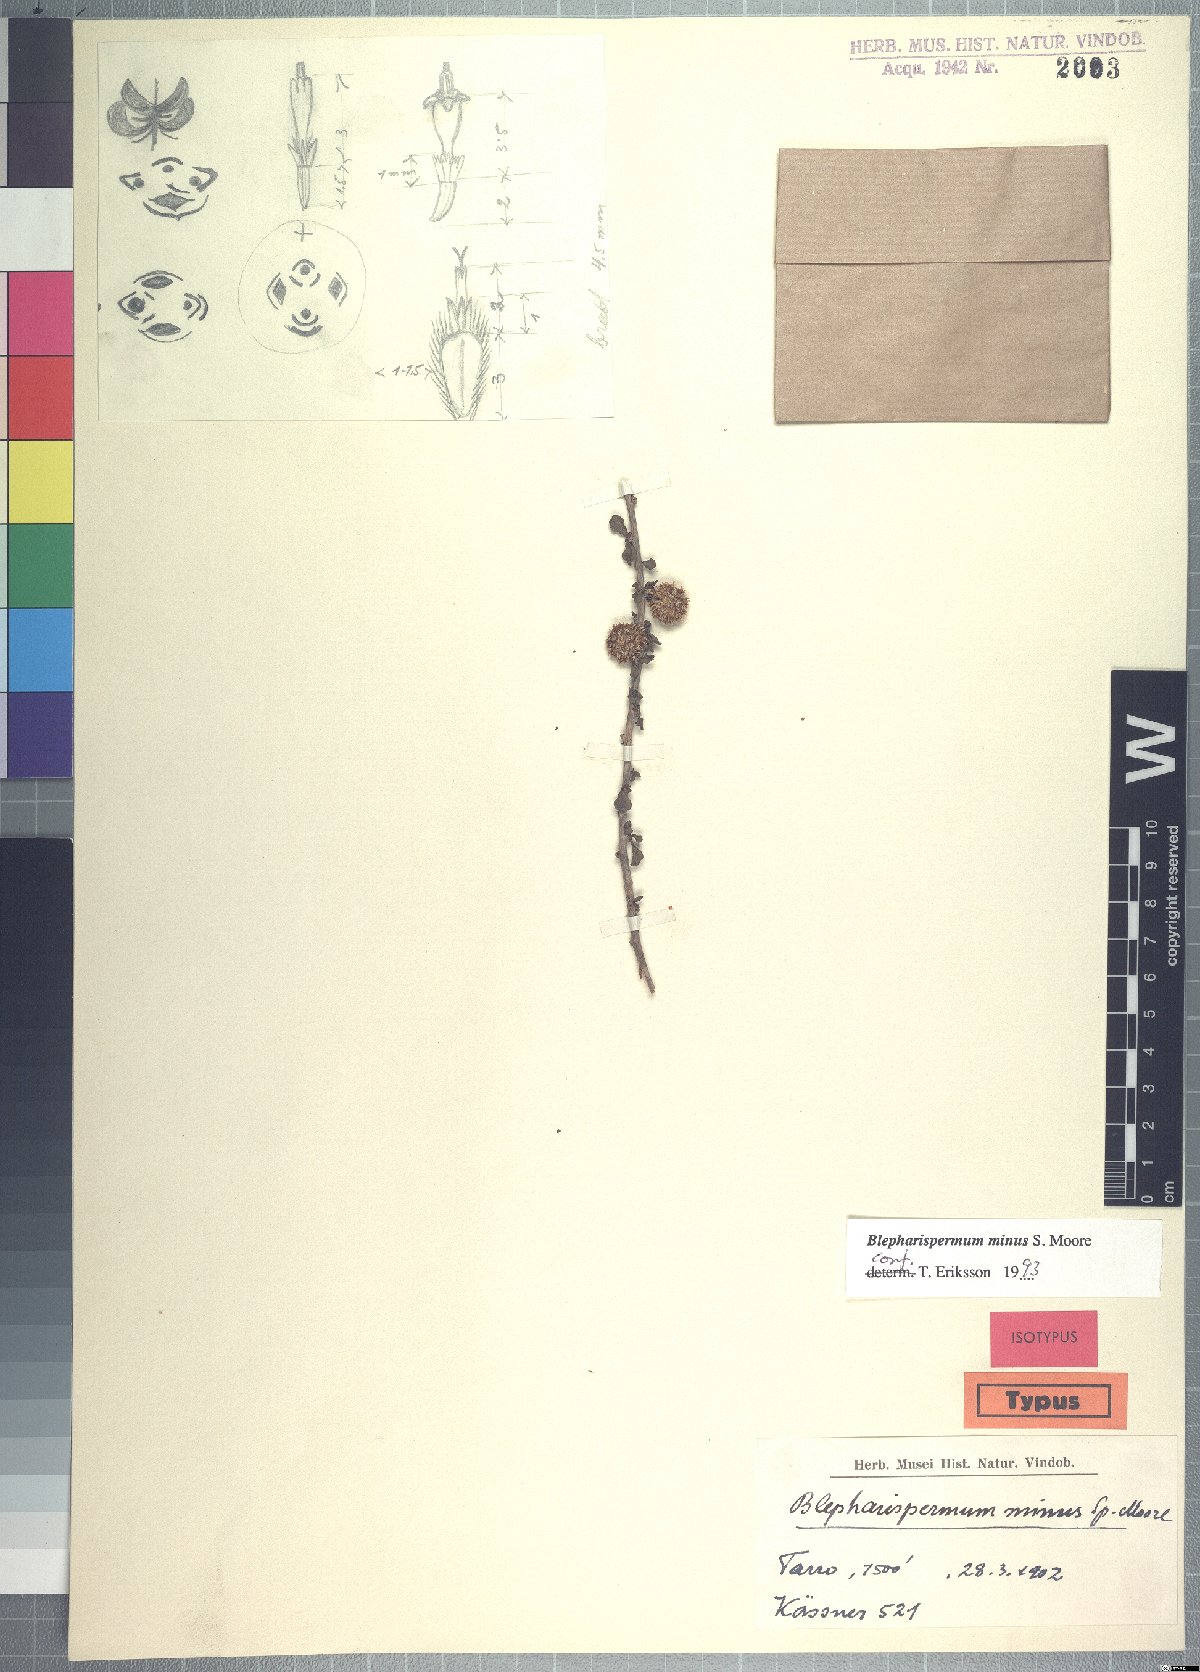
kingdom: Plantae
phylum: Tracheophyta
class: Magnoliopsida
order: Asterales
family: Asteraceae
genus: Blepharispermum
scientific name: Blepharispermum minus
